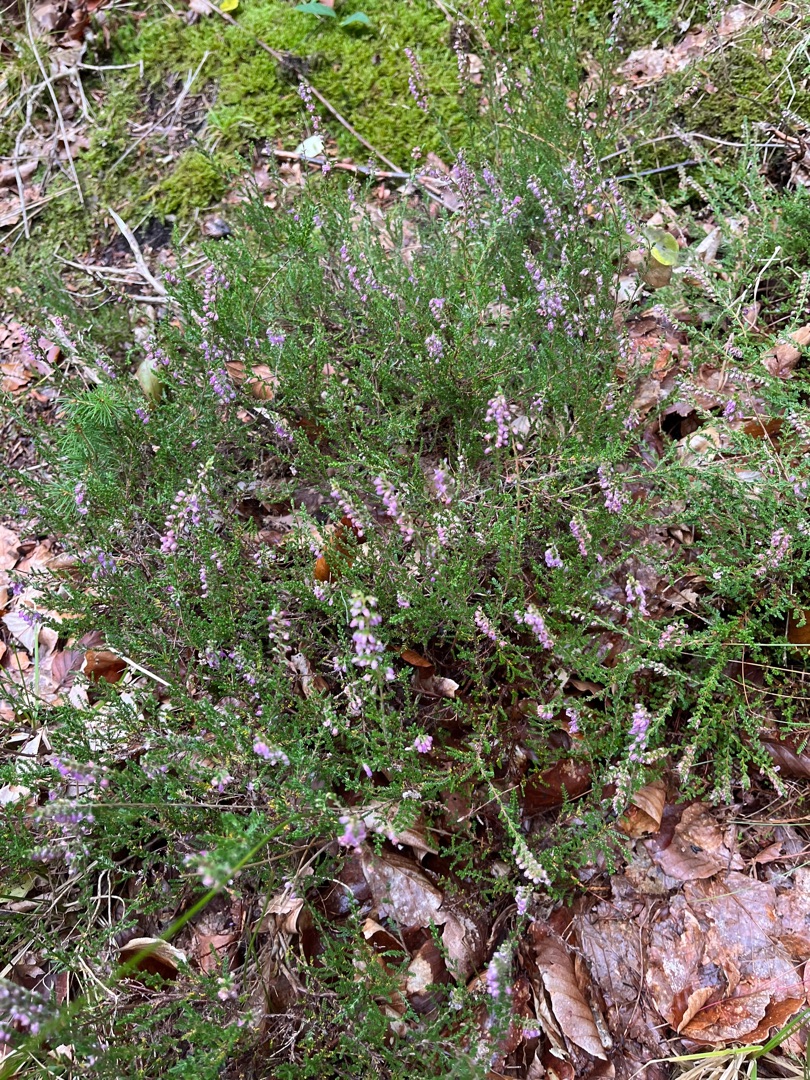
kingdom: Plantae
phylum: Tracheophyta
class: Magnoliopsida
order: Ericales
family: Ericaceae
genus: Calluna
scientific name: Calluna vulgaris
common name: Hedelyng
